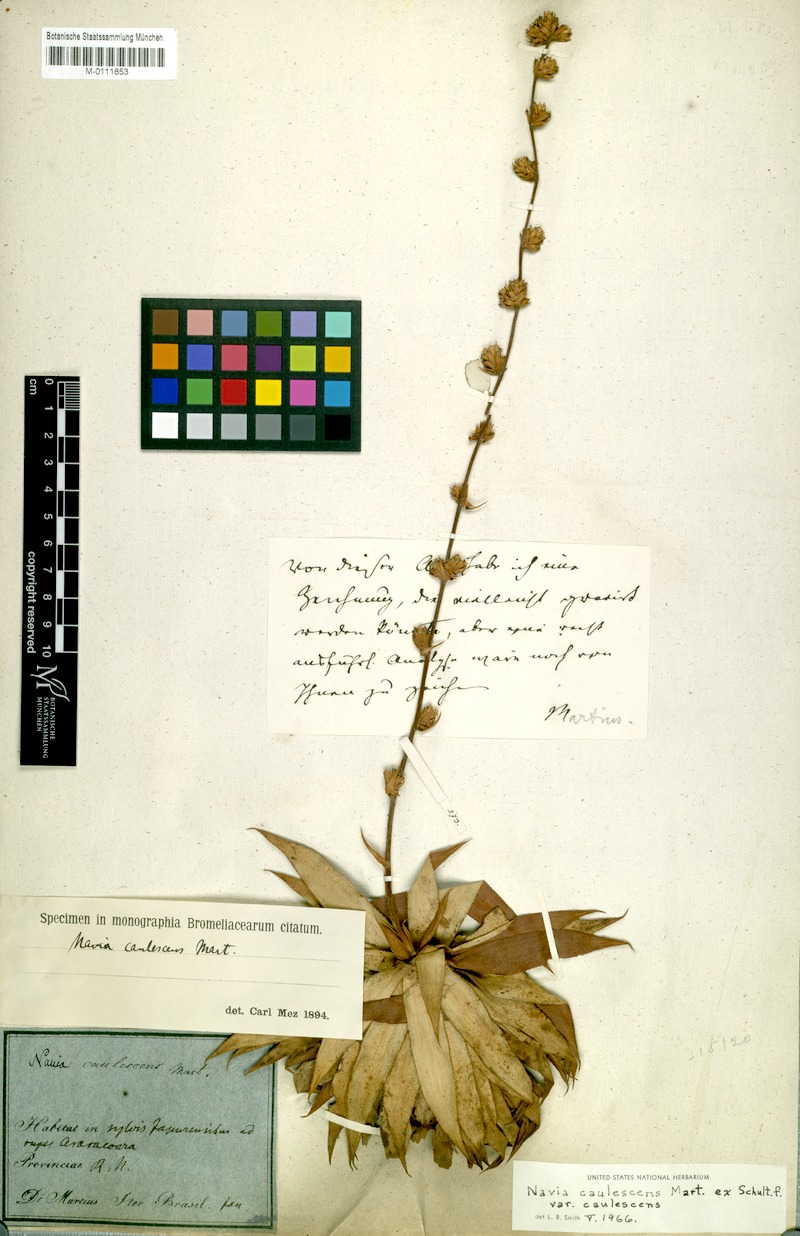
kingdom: Plantae
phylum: Tracheophyta
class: Liliopsida
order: Poales
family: Bromeliaceae
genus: Navia
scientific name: Navia caulescens
